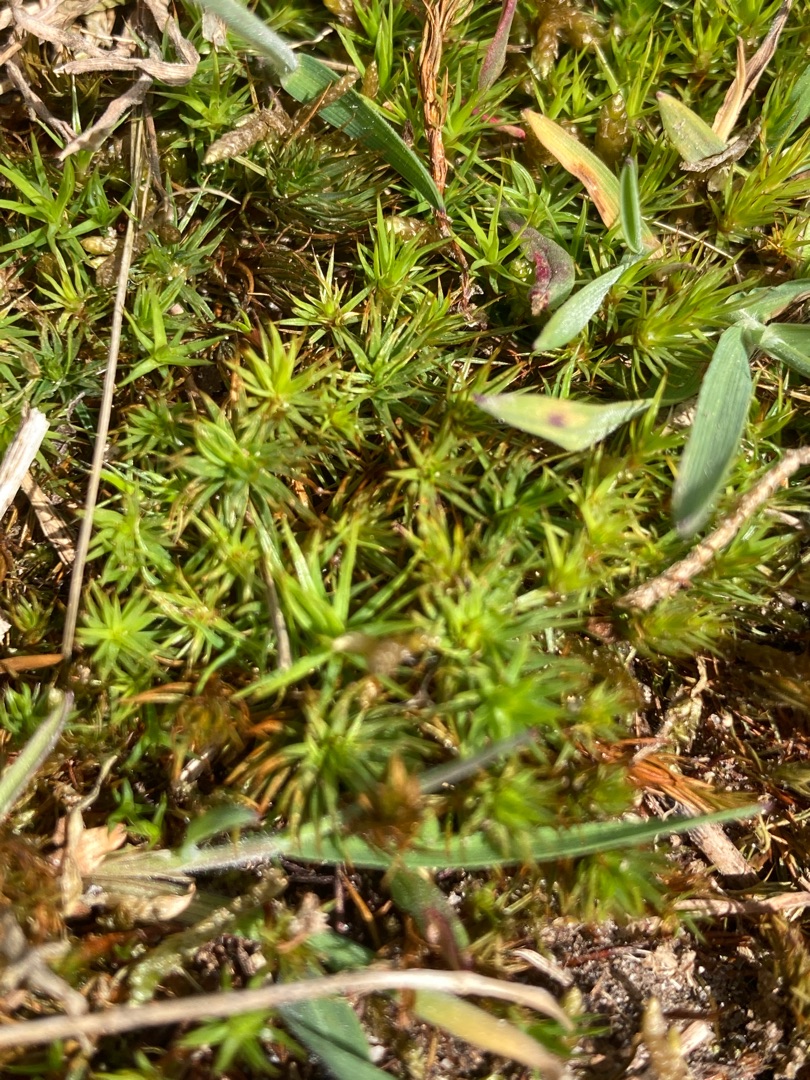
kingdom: Plantae
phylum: Bryophyta
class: Polytrichopsida
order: Polytrichales
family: Polytrichaceae
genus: Polytrichum
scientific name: Polytrichum juniperinum
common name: Ene-jomfruhår
